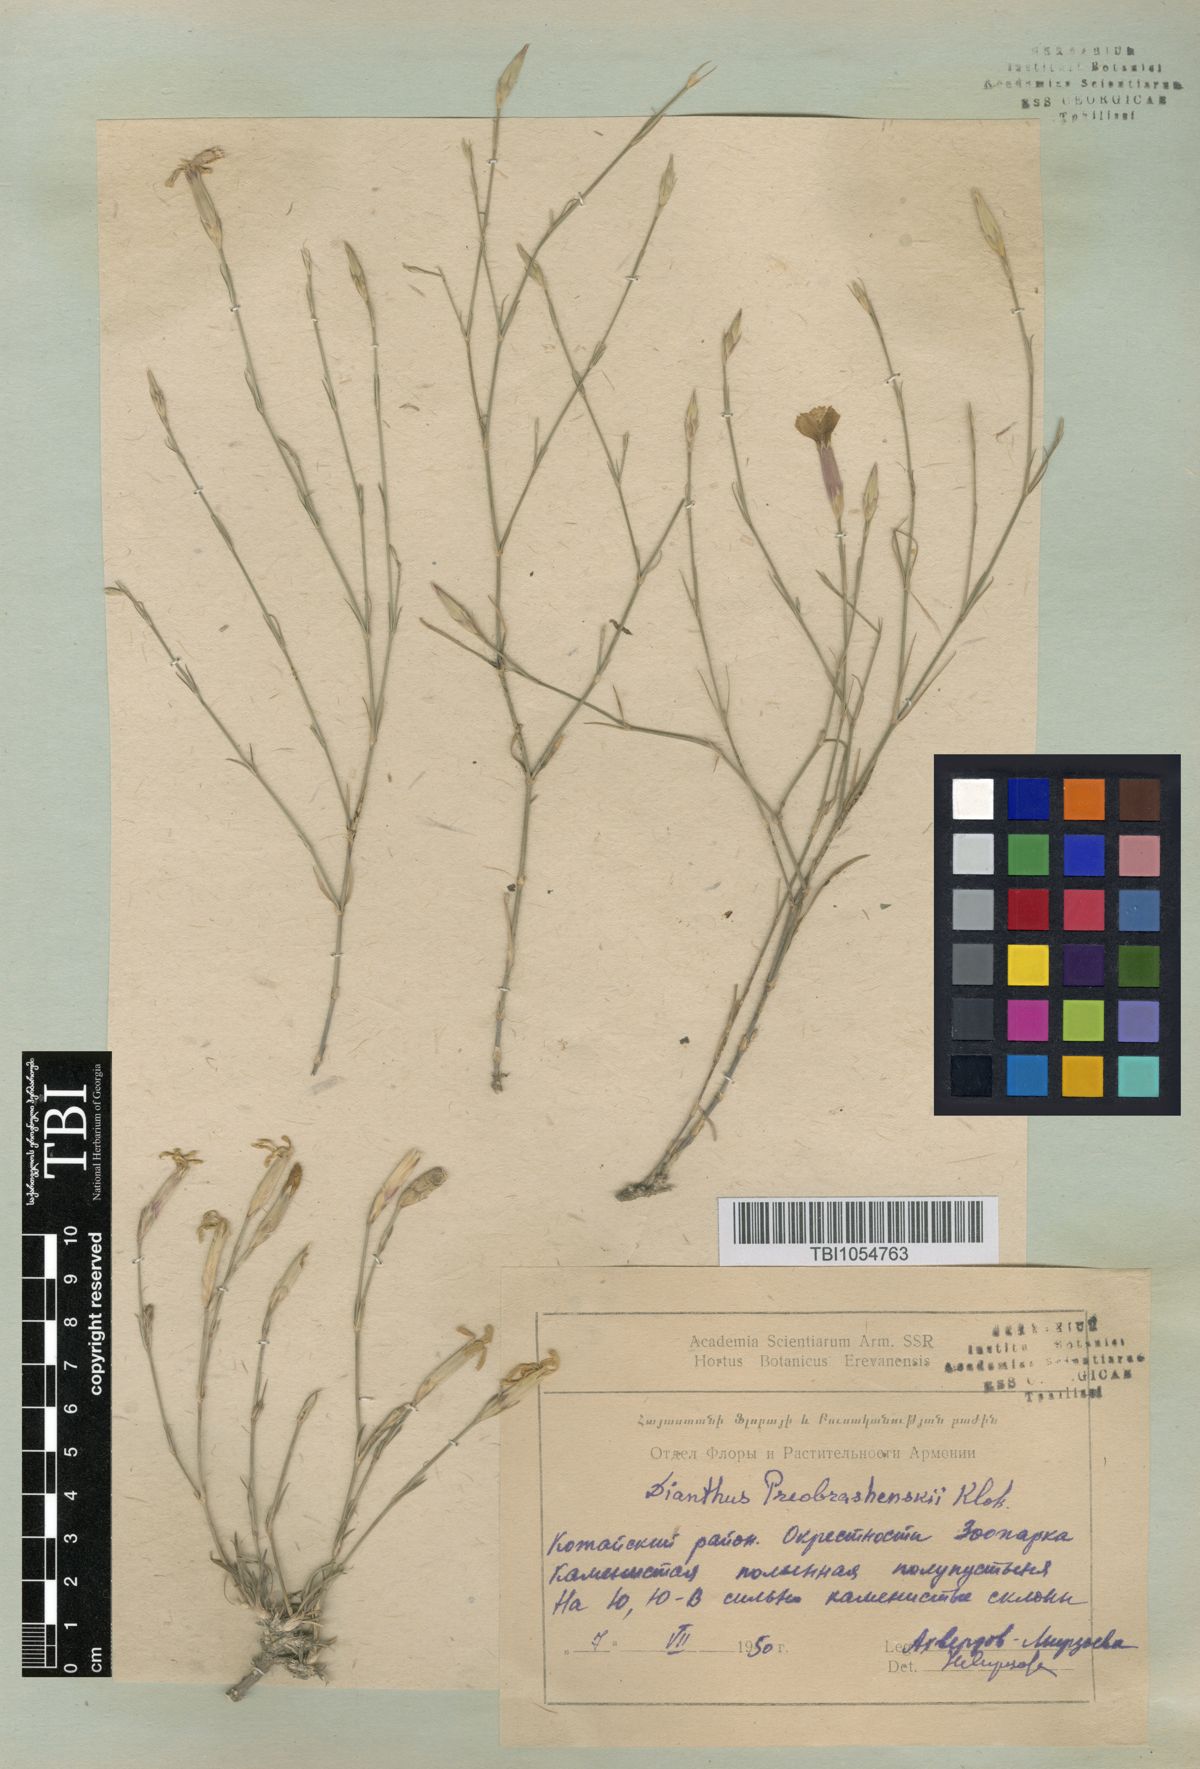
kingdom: Plantae
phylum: Tracheophyta
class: Magnoliopsida
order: Caryophyllales
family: Caryophyllaceae
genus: Dianthus
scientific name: Dianthus bicolor
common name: Bicolour pink
